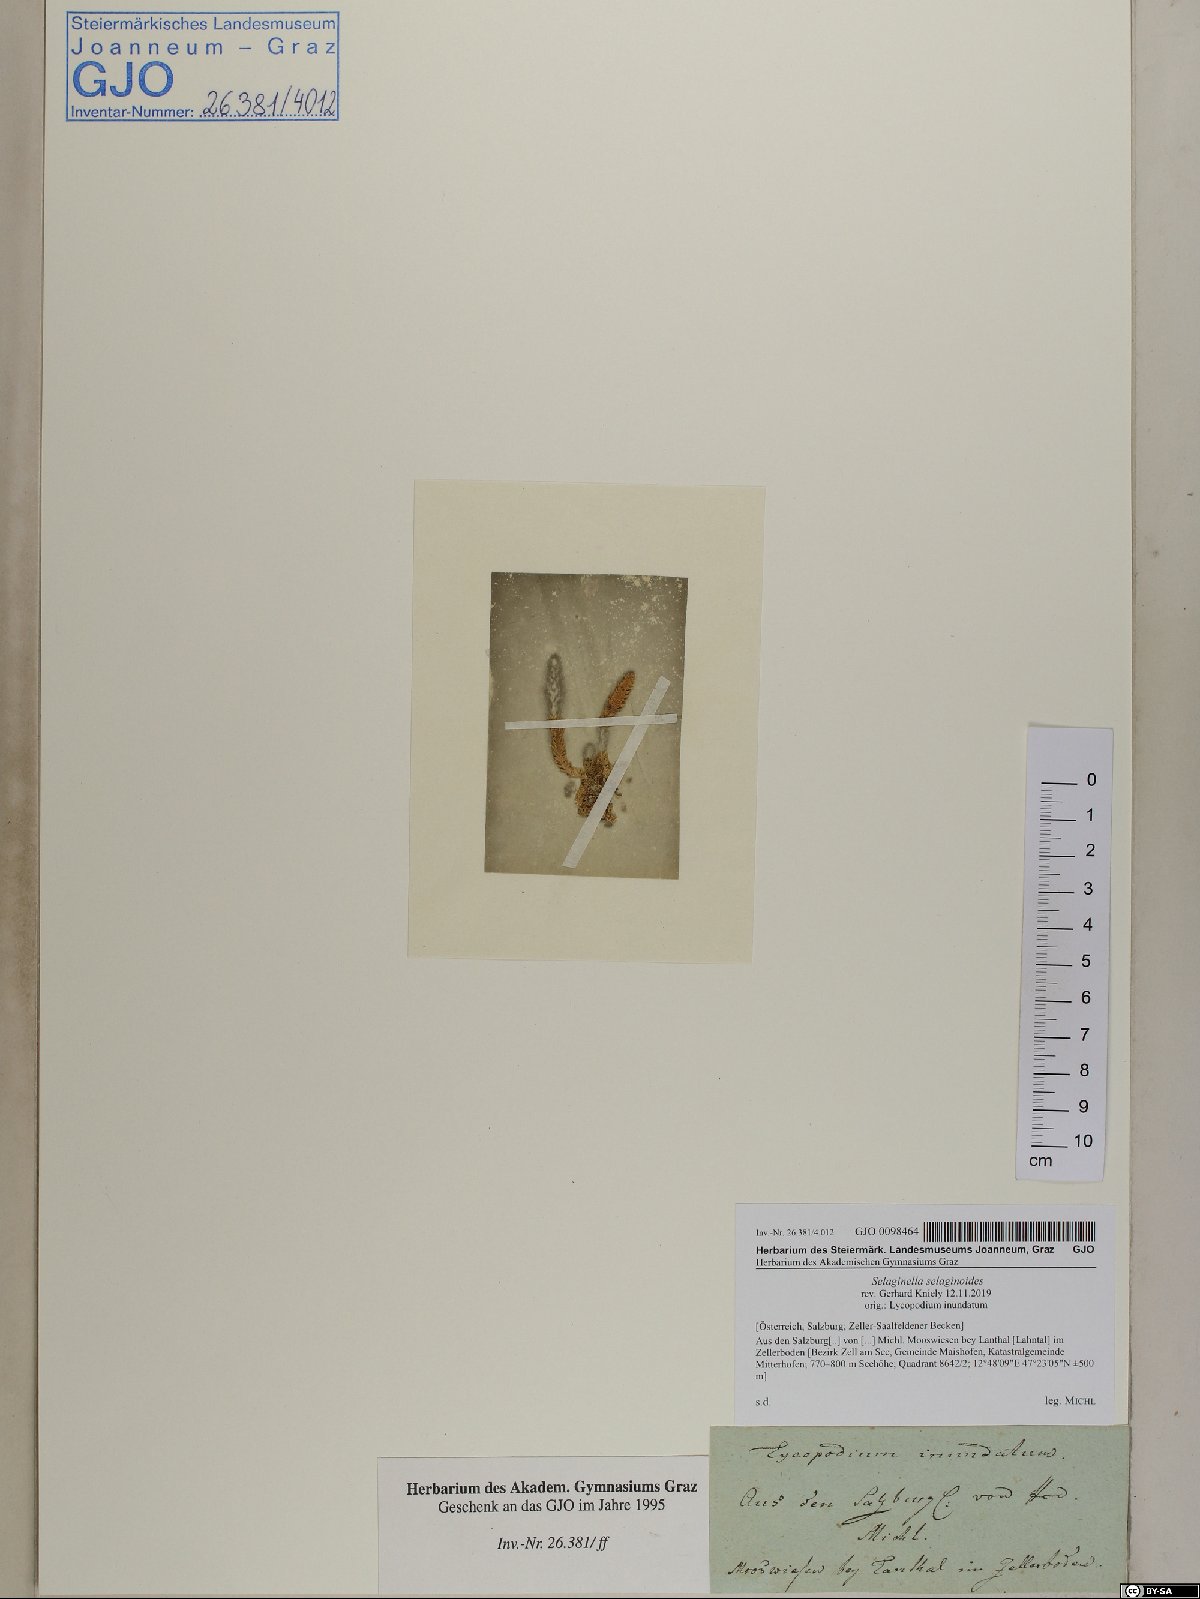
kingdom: Plantae
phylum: Tracheophyta
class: Lycopodiopsida
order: Selaginellales
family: Selaginellaceae
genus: Selaginella
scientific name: Selaginella selaginoides
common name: Prickly mountain-moss
